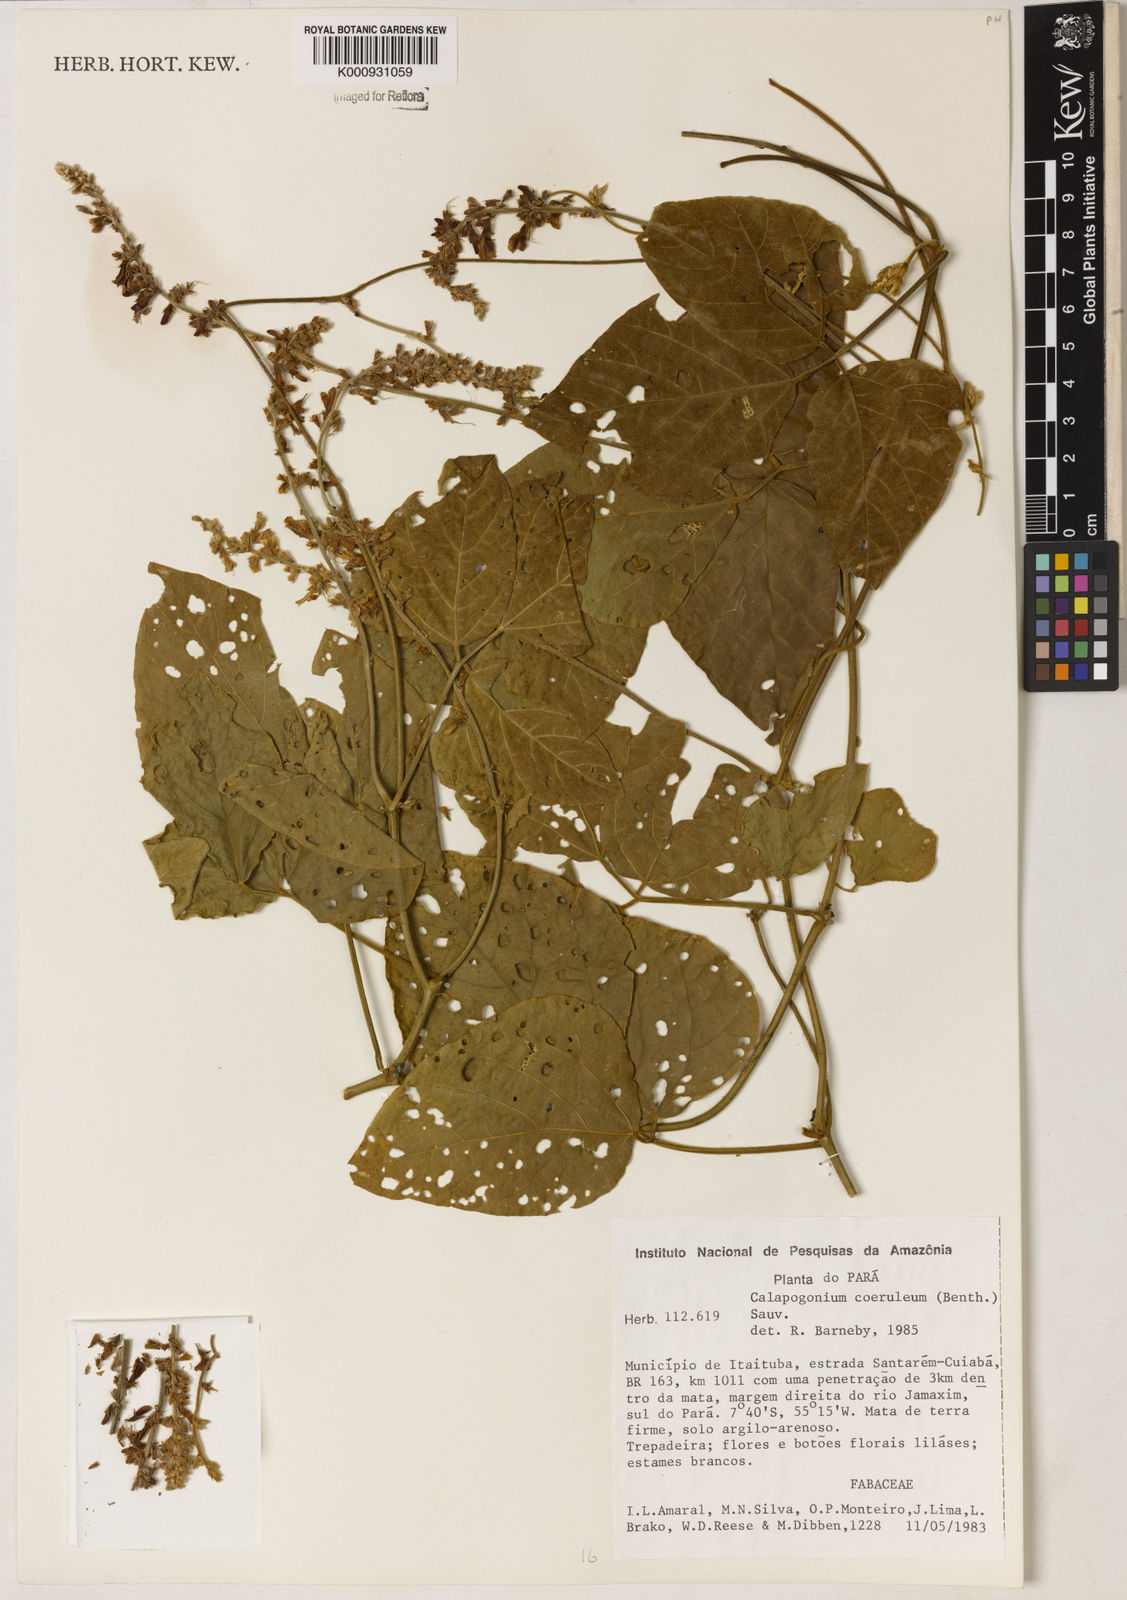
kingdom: Plantae
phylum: Tracheophyta
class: Magnoliopsida
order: Fabales
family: Fabaceae
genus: Calopogonium
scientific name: Calopogonium caeruleum
